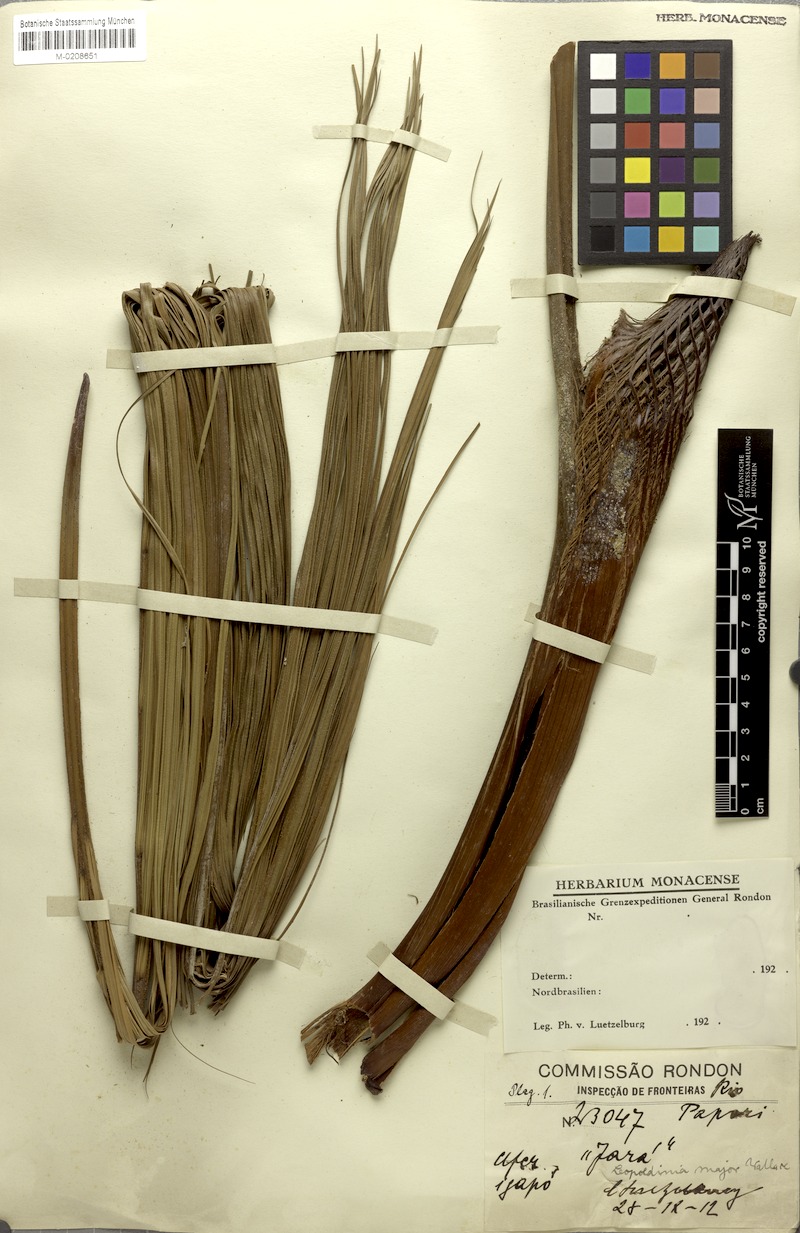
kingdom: Plantae
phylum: Tracheophyta
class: Liliopsida
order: Arecales
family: Arecaceae
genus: Leopoldinia
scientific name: Leopoldinia major
